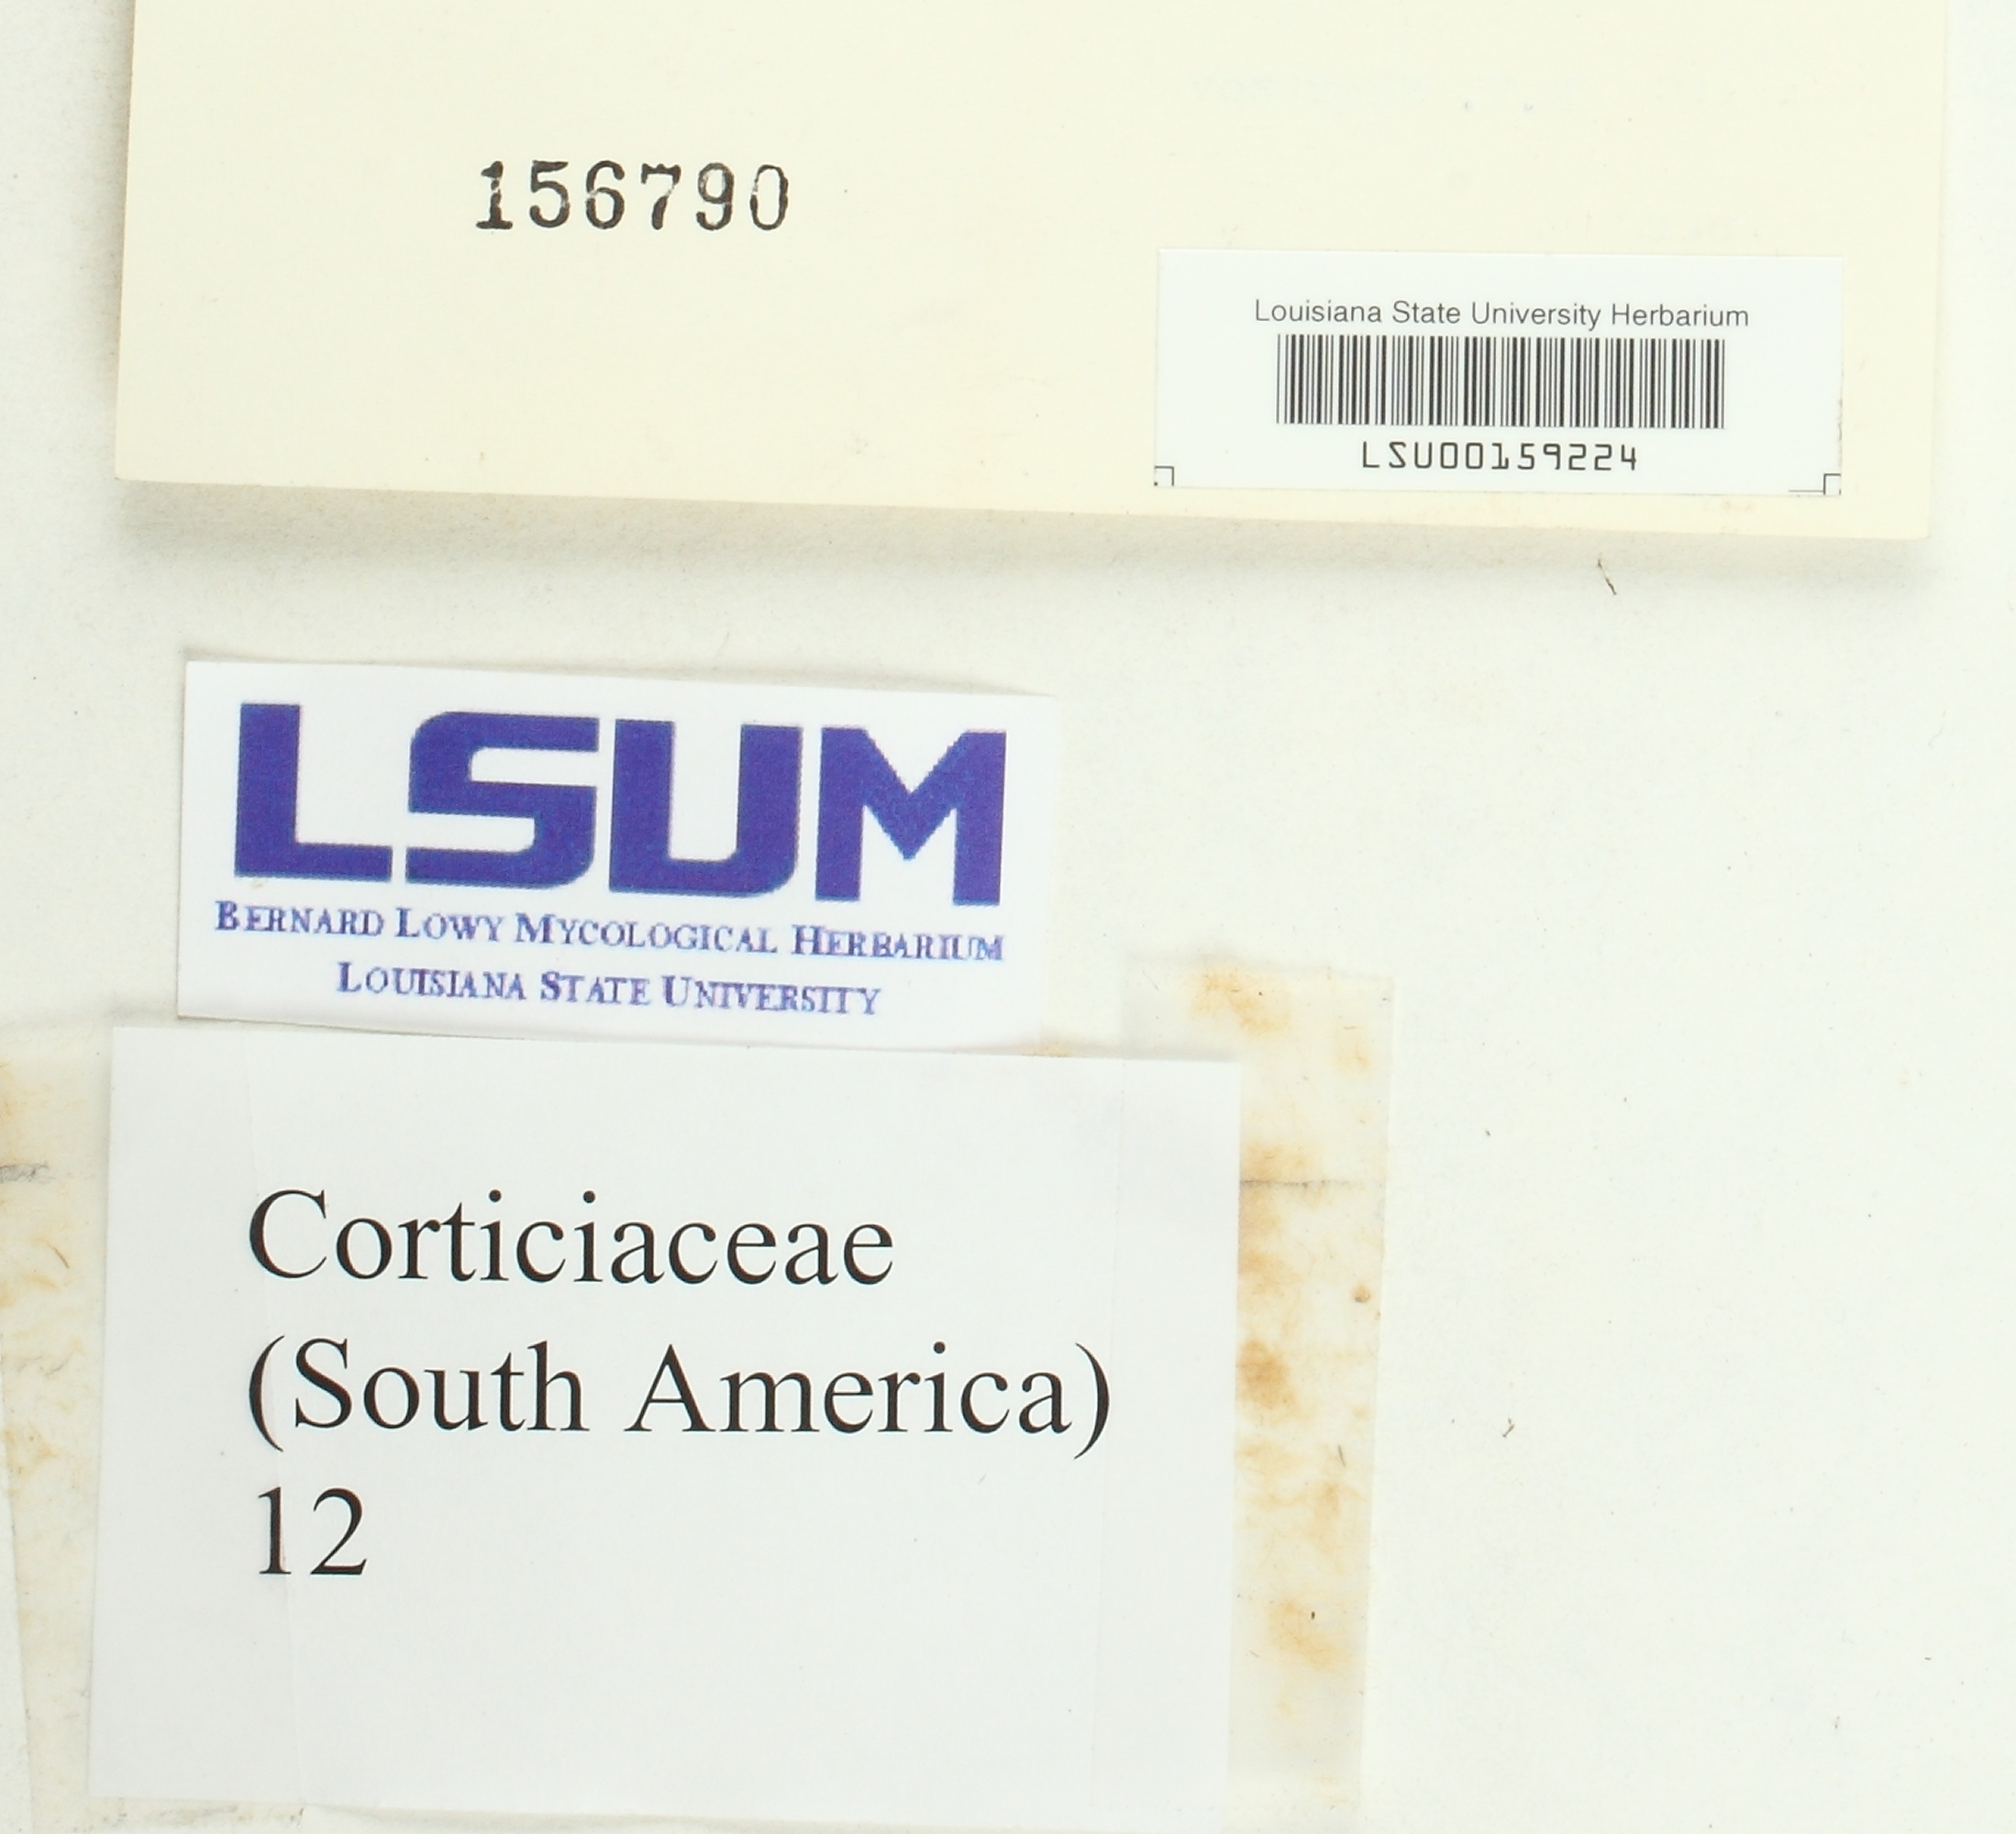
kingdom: Fungi
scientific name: Fungi
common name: Fungi
